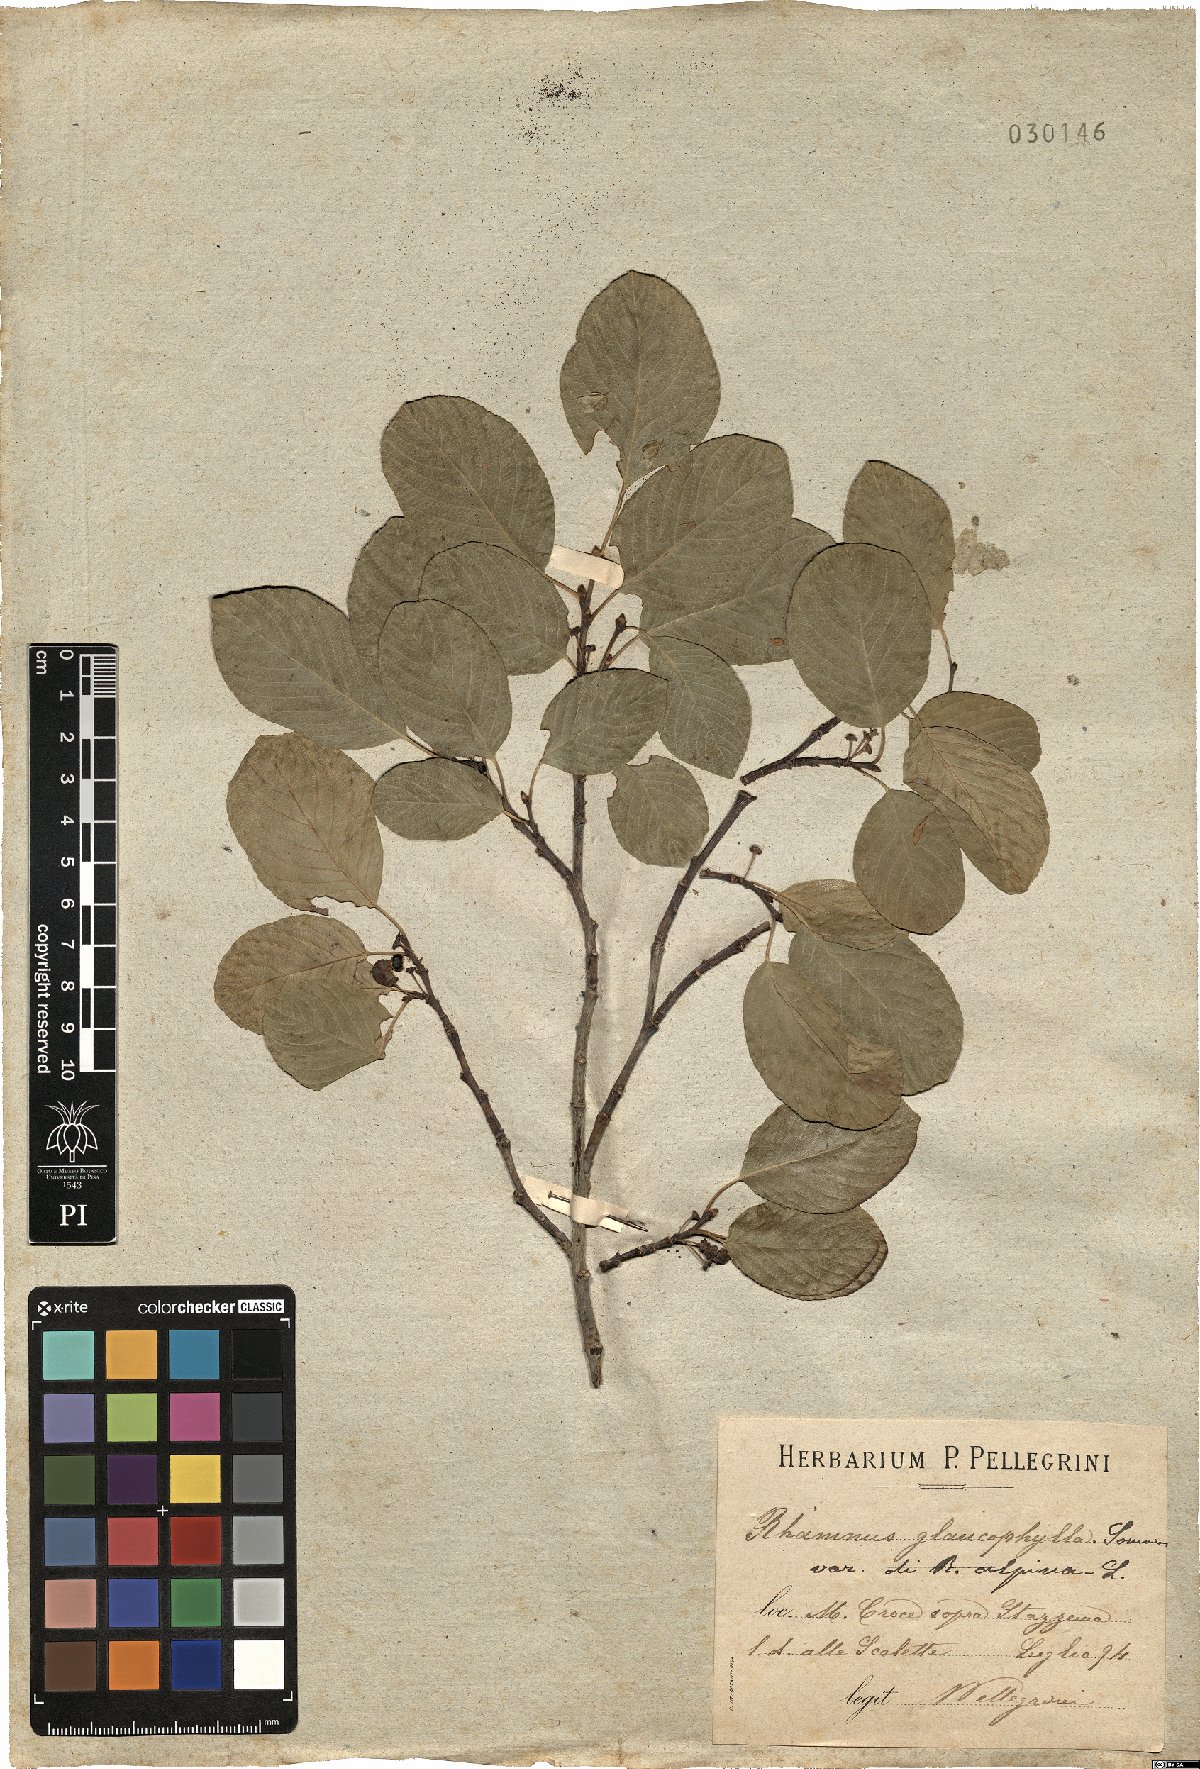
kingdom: Plantae
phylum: Tracheophyta
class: Magnoliopsida
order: Rosales
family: Rhamnaceae
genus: Atadinus
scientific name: Atadinus glaucophyllus
